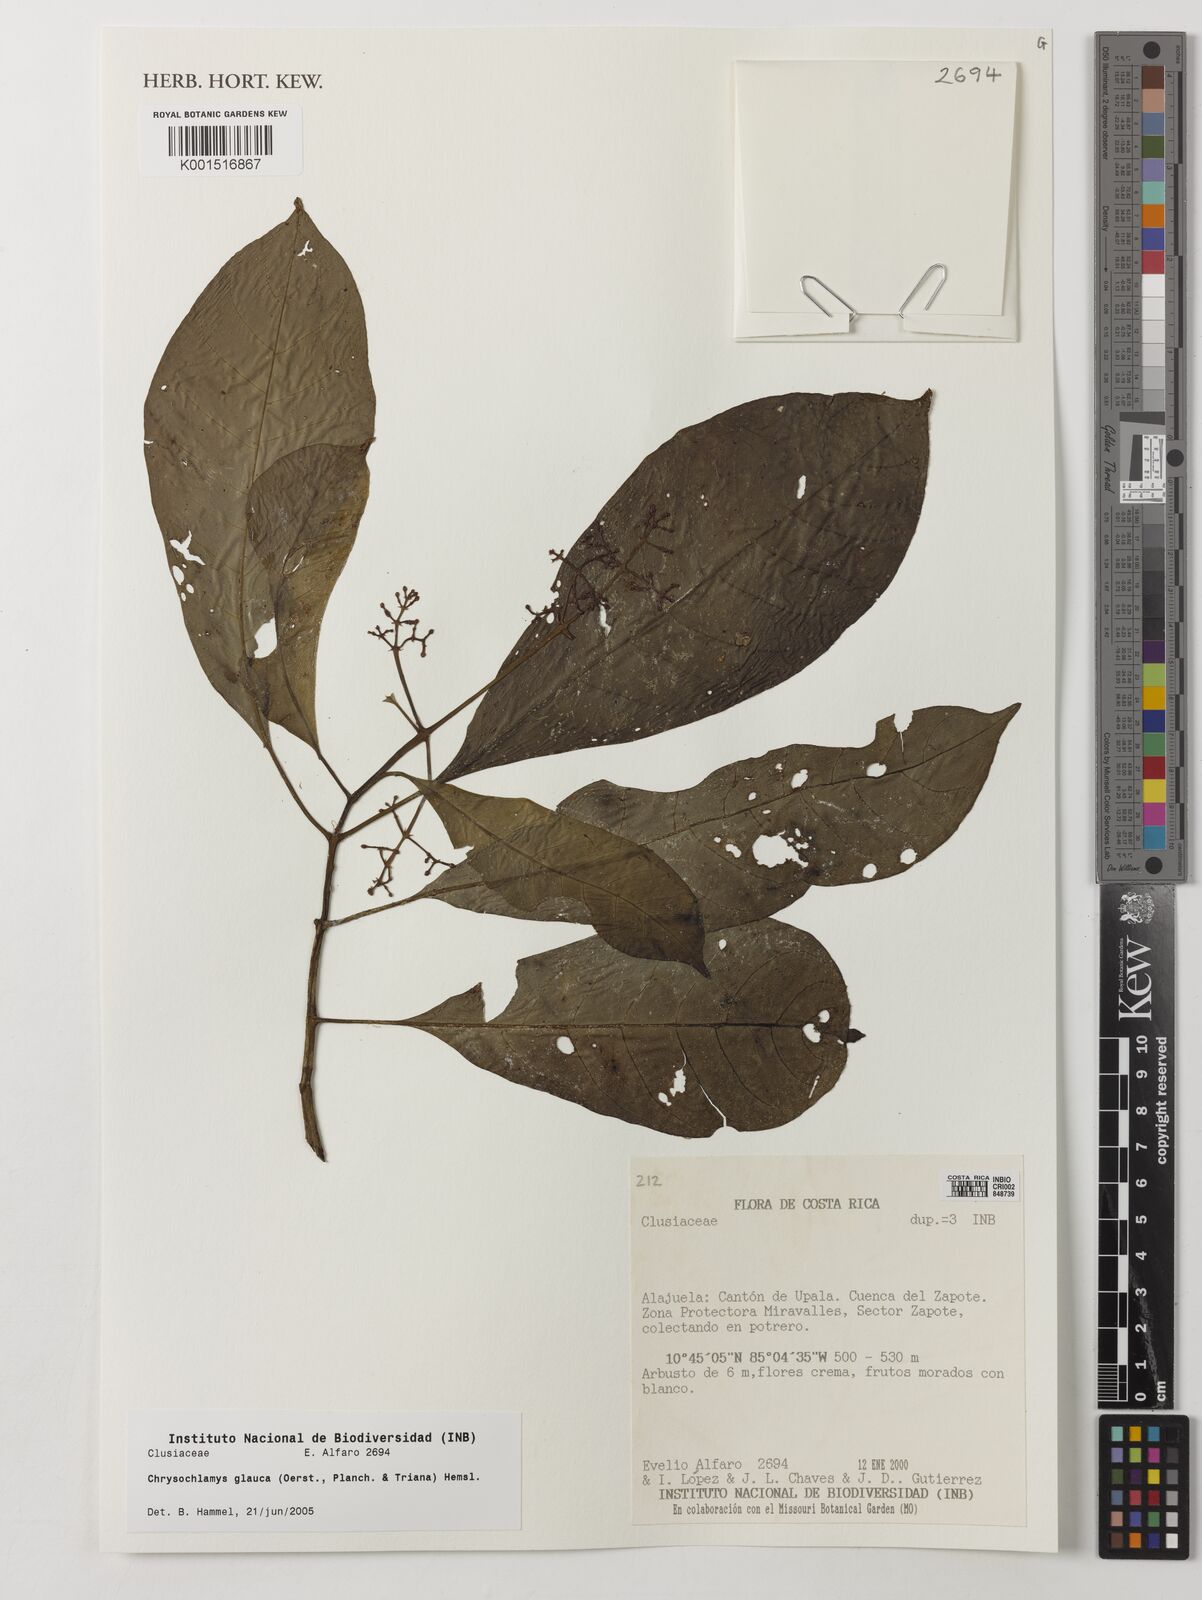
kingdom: Plantae
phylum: Tracheophyta
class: Magnoliopsida
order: Malpighiales
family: Clusiaceae
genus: Chrysochlamys
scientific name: Chrysochlamys glauca
